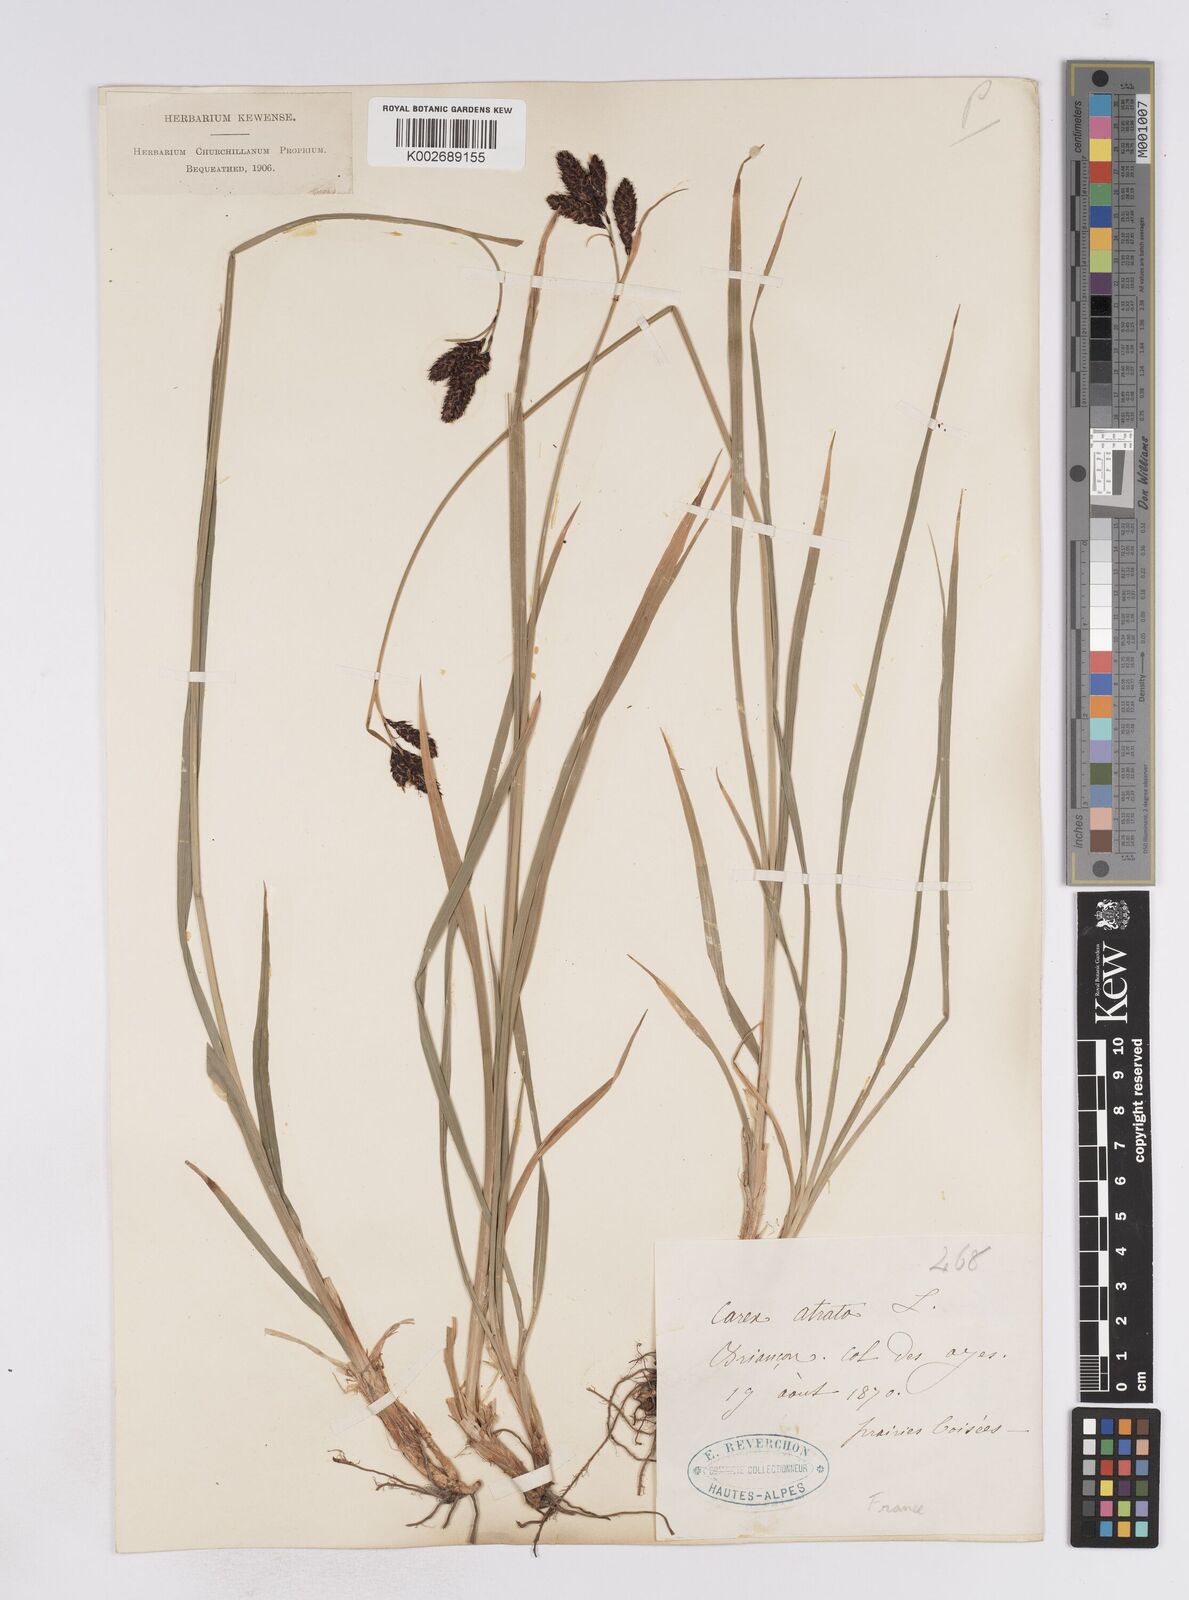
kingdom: Plantae
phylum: Tracheophyta
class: Liliopsida
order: Poales
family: Cyperaceae
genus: Carex
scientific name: Carex aterrima
